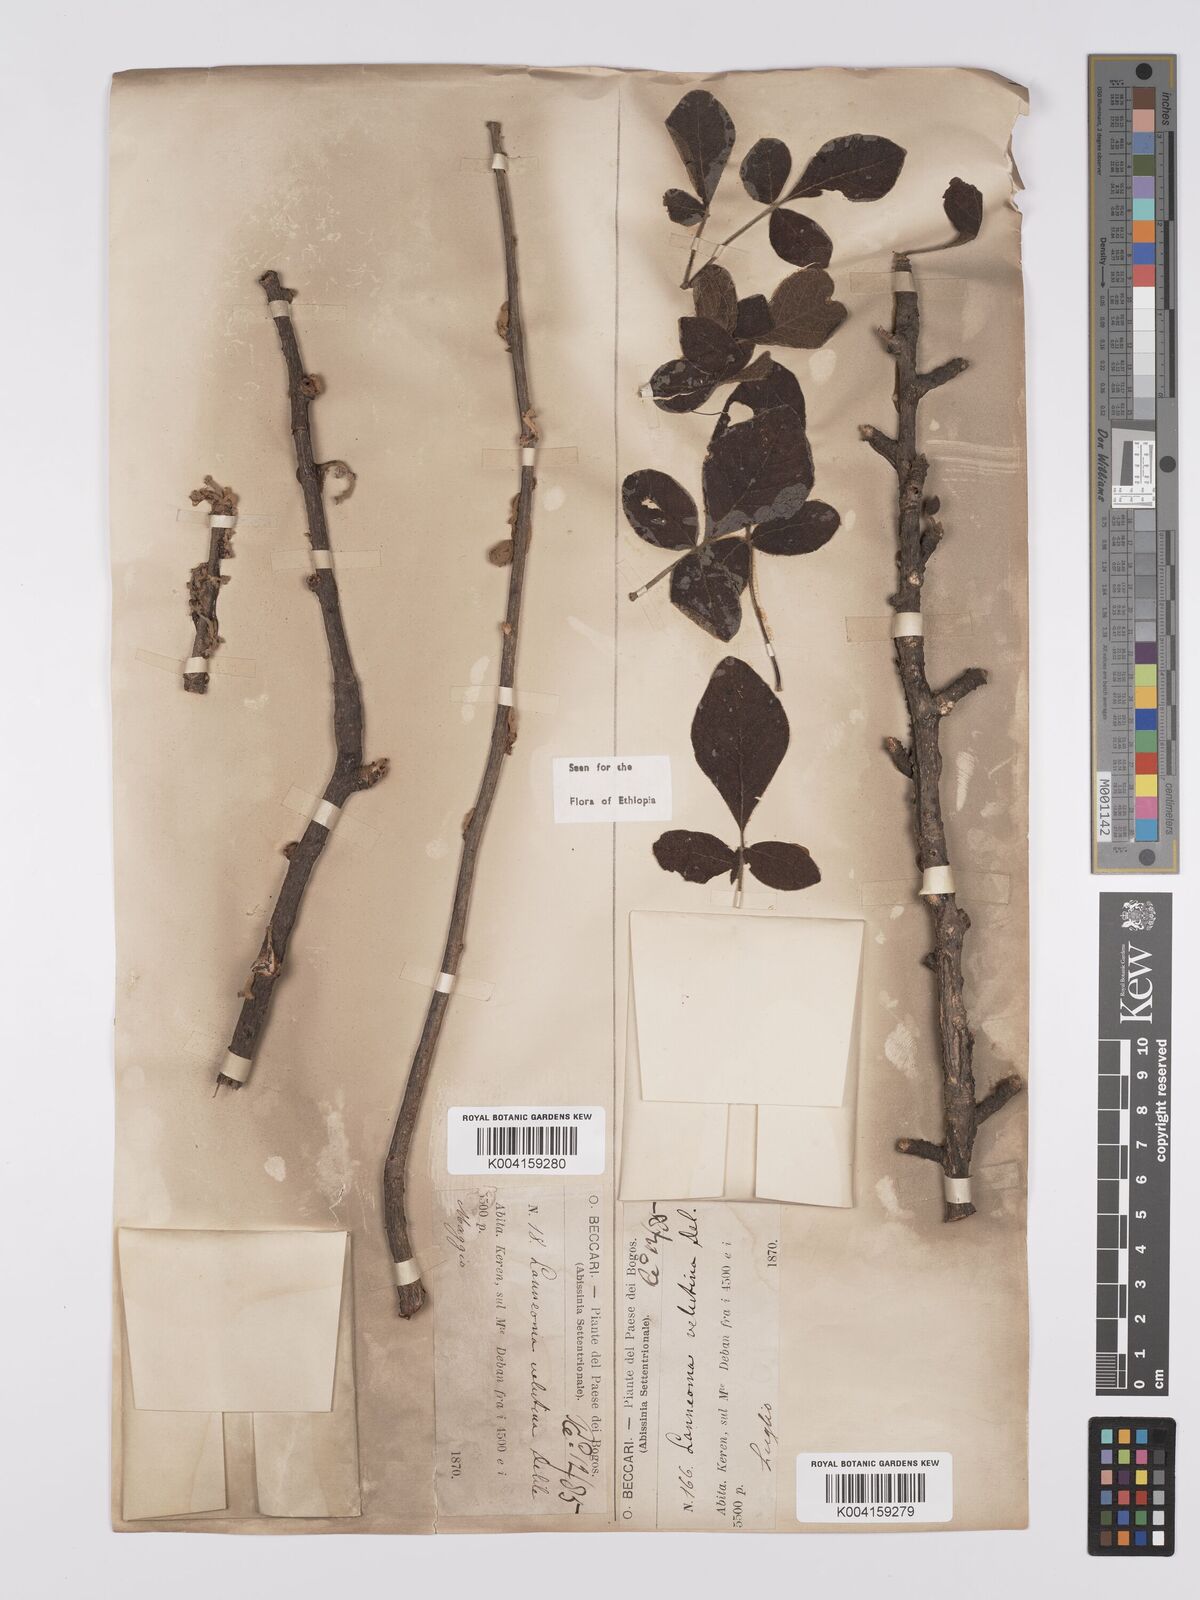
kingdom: Plantae
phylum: Tracheophyta
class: Magnoliopsida
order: Sapindales
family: Anacardiaceae
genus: Lannea
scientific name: Lannea triphylla
